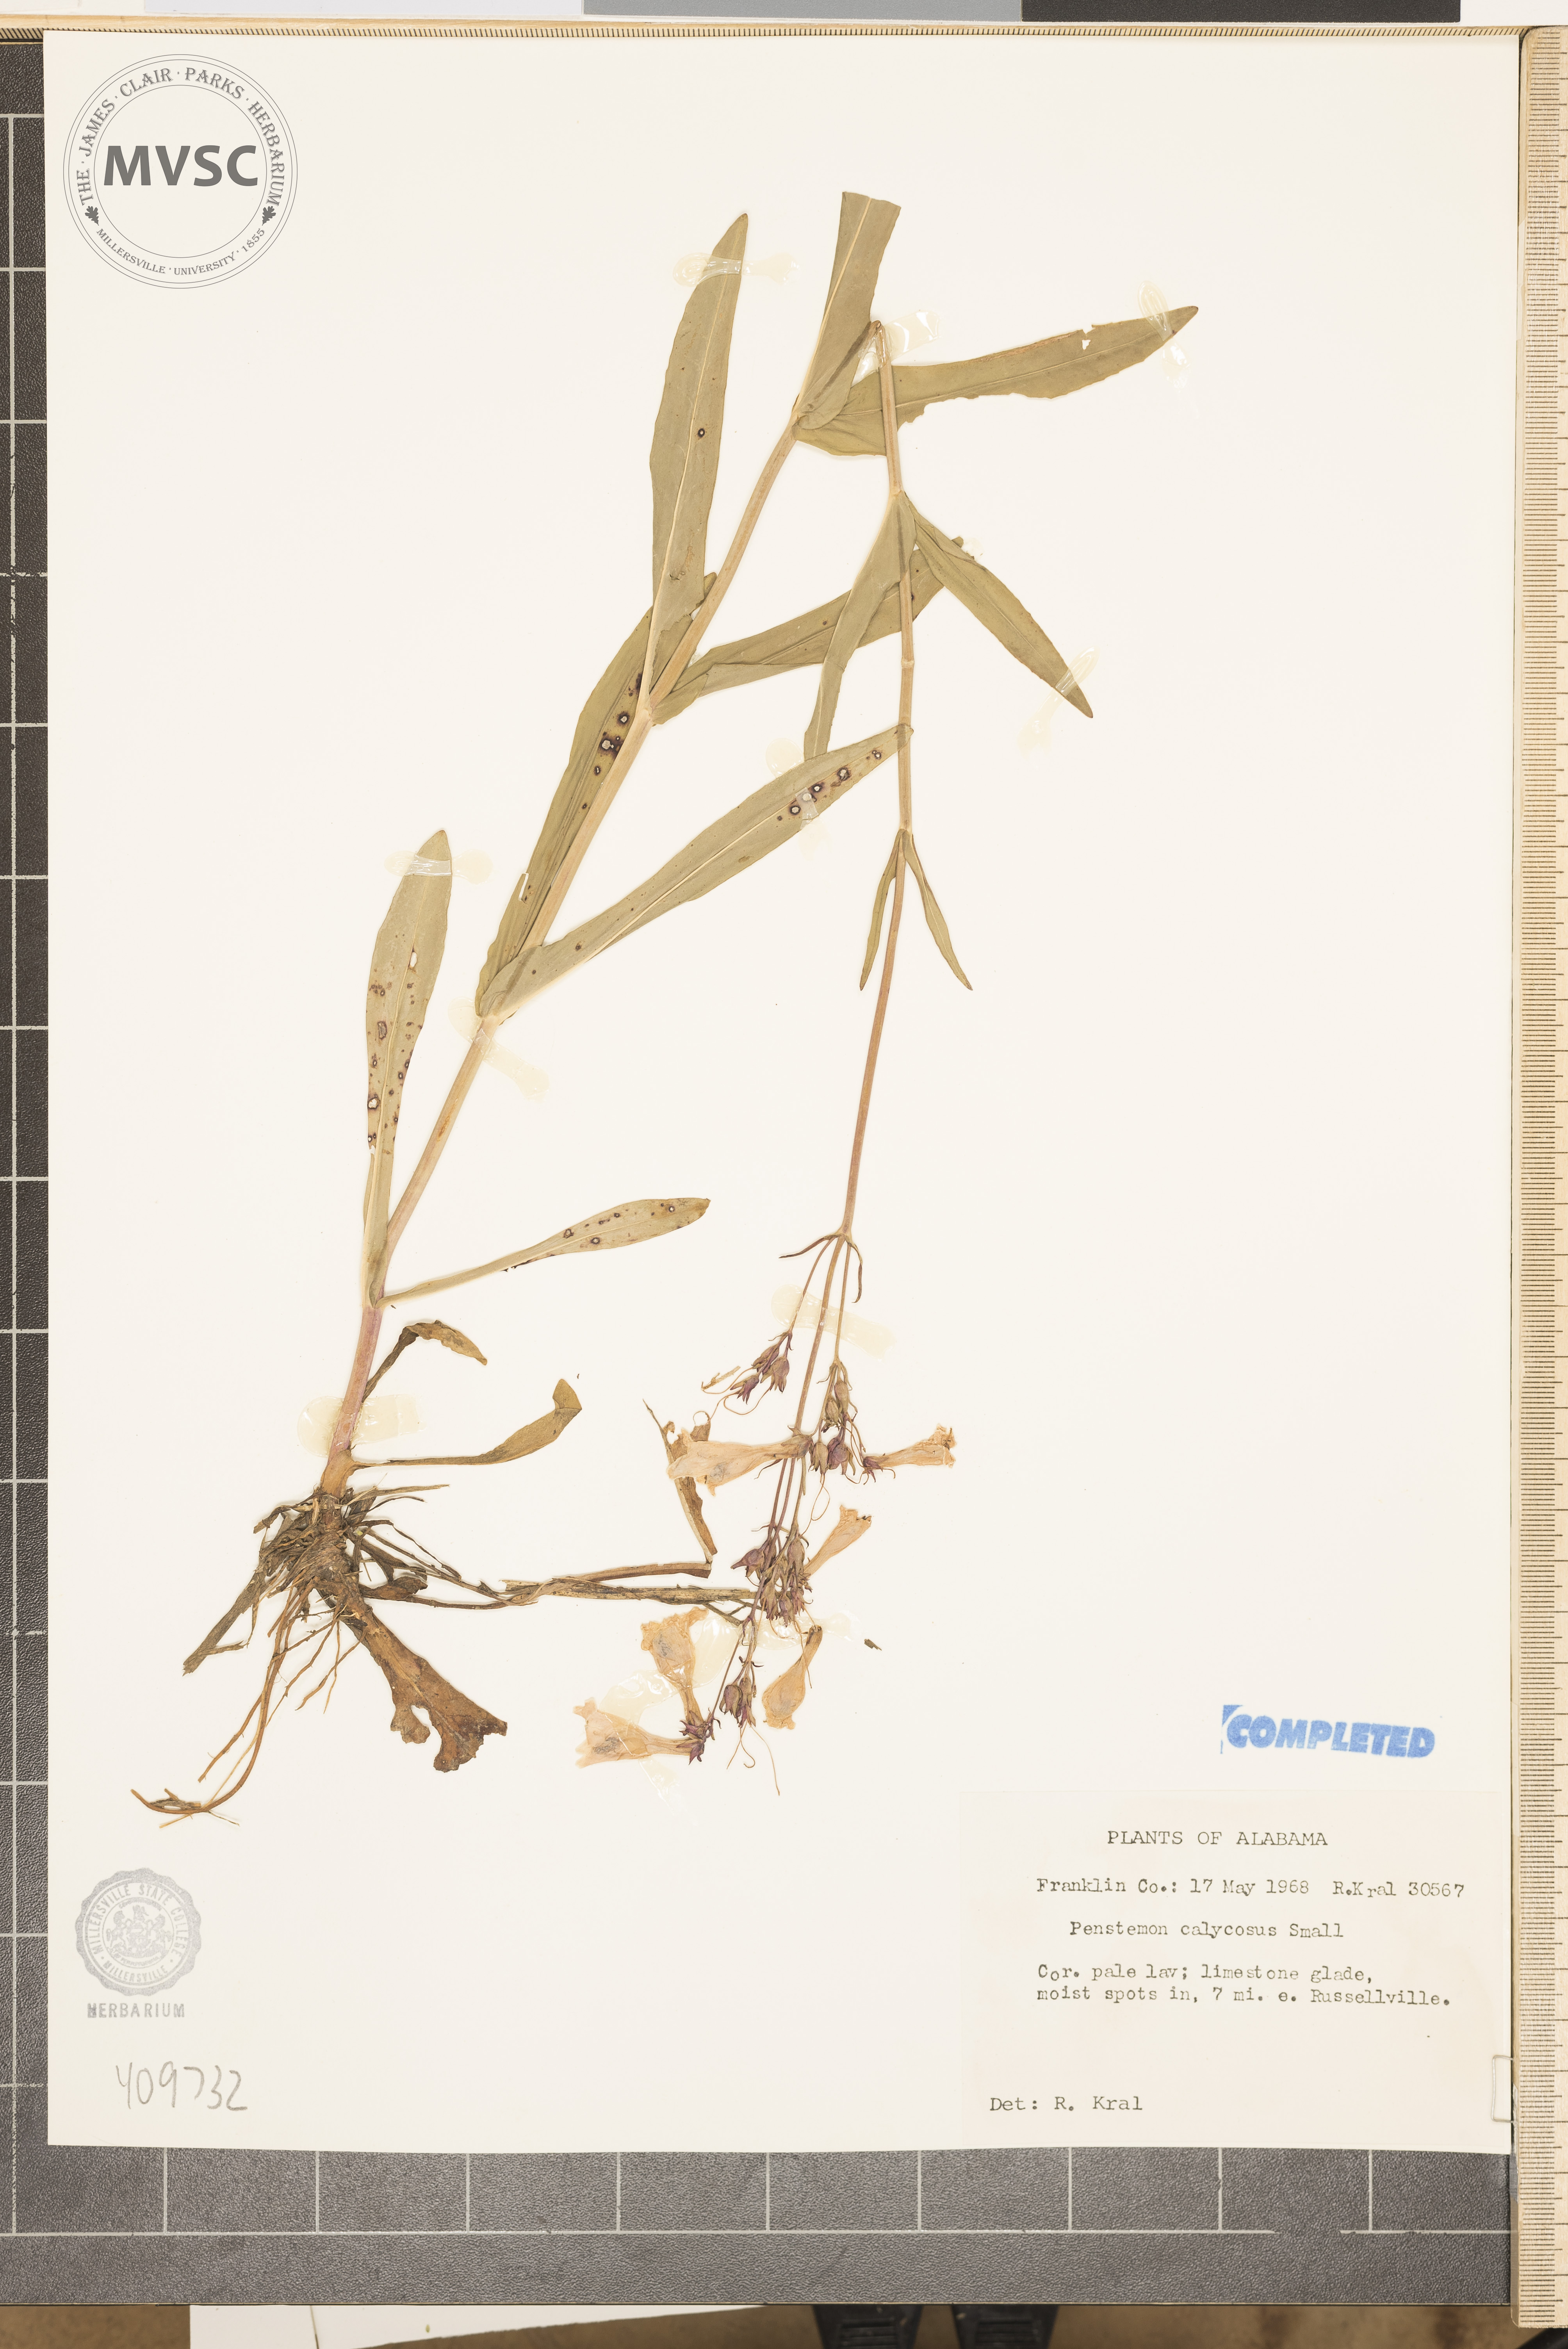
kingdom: Plantae
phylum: Tracheophyta
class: Magnoliopsida
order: Lamiales
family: Plantaginaceae
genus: Penstemon
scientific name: Penstemon calycosus
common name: Long-sepal beardtongue
